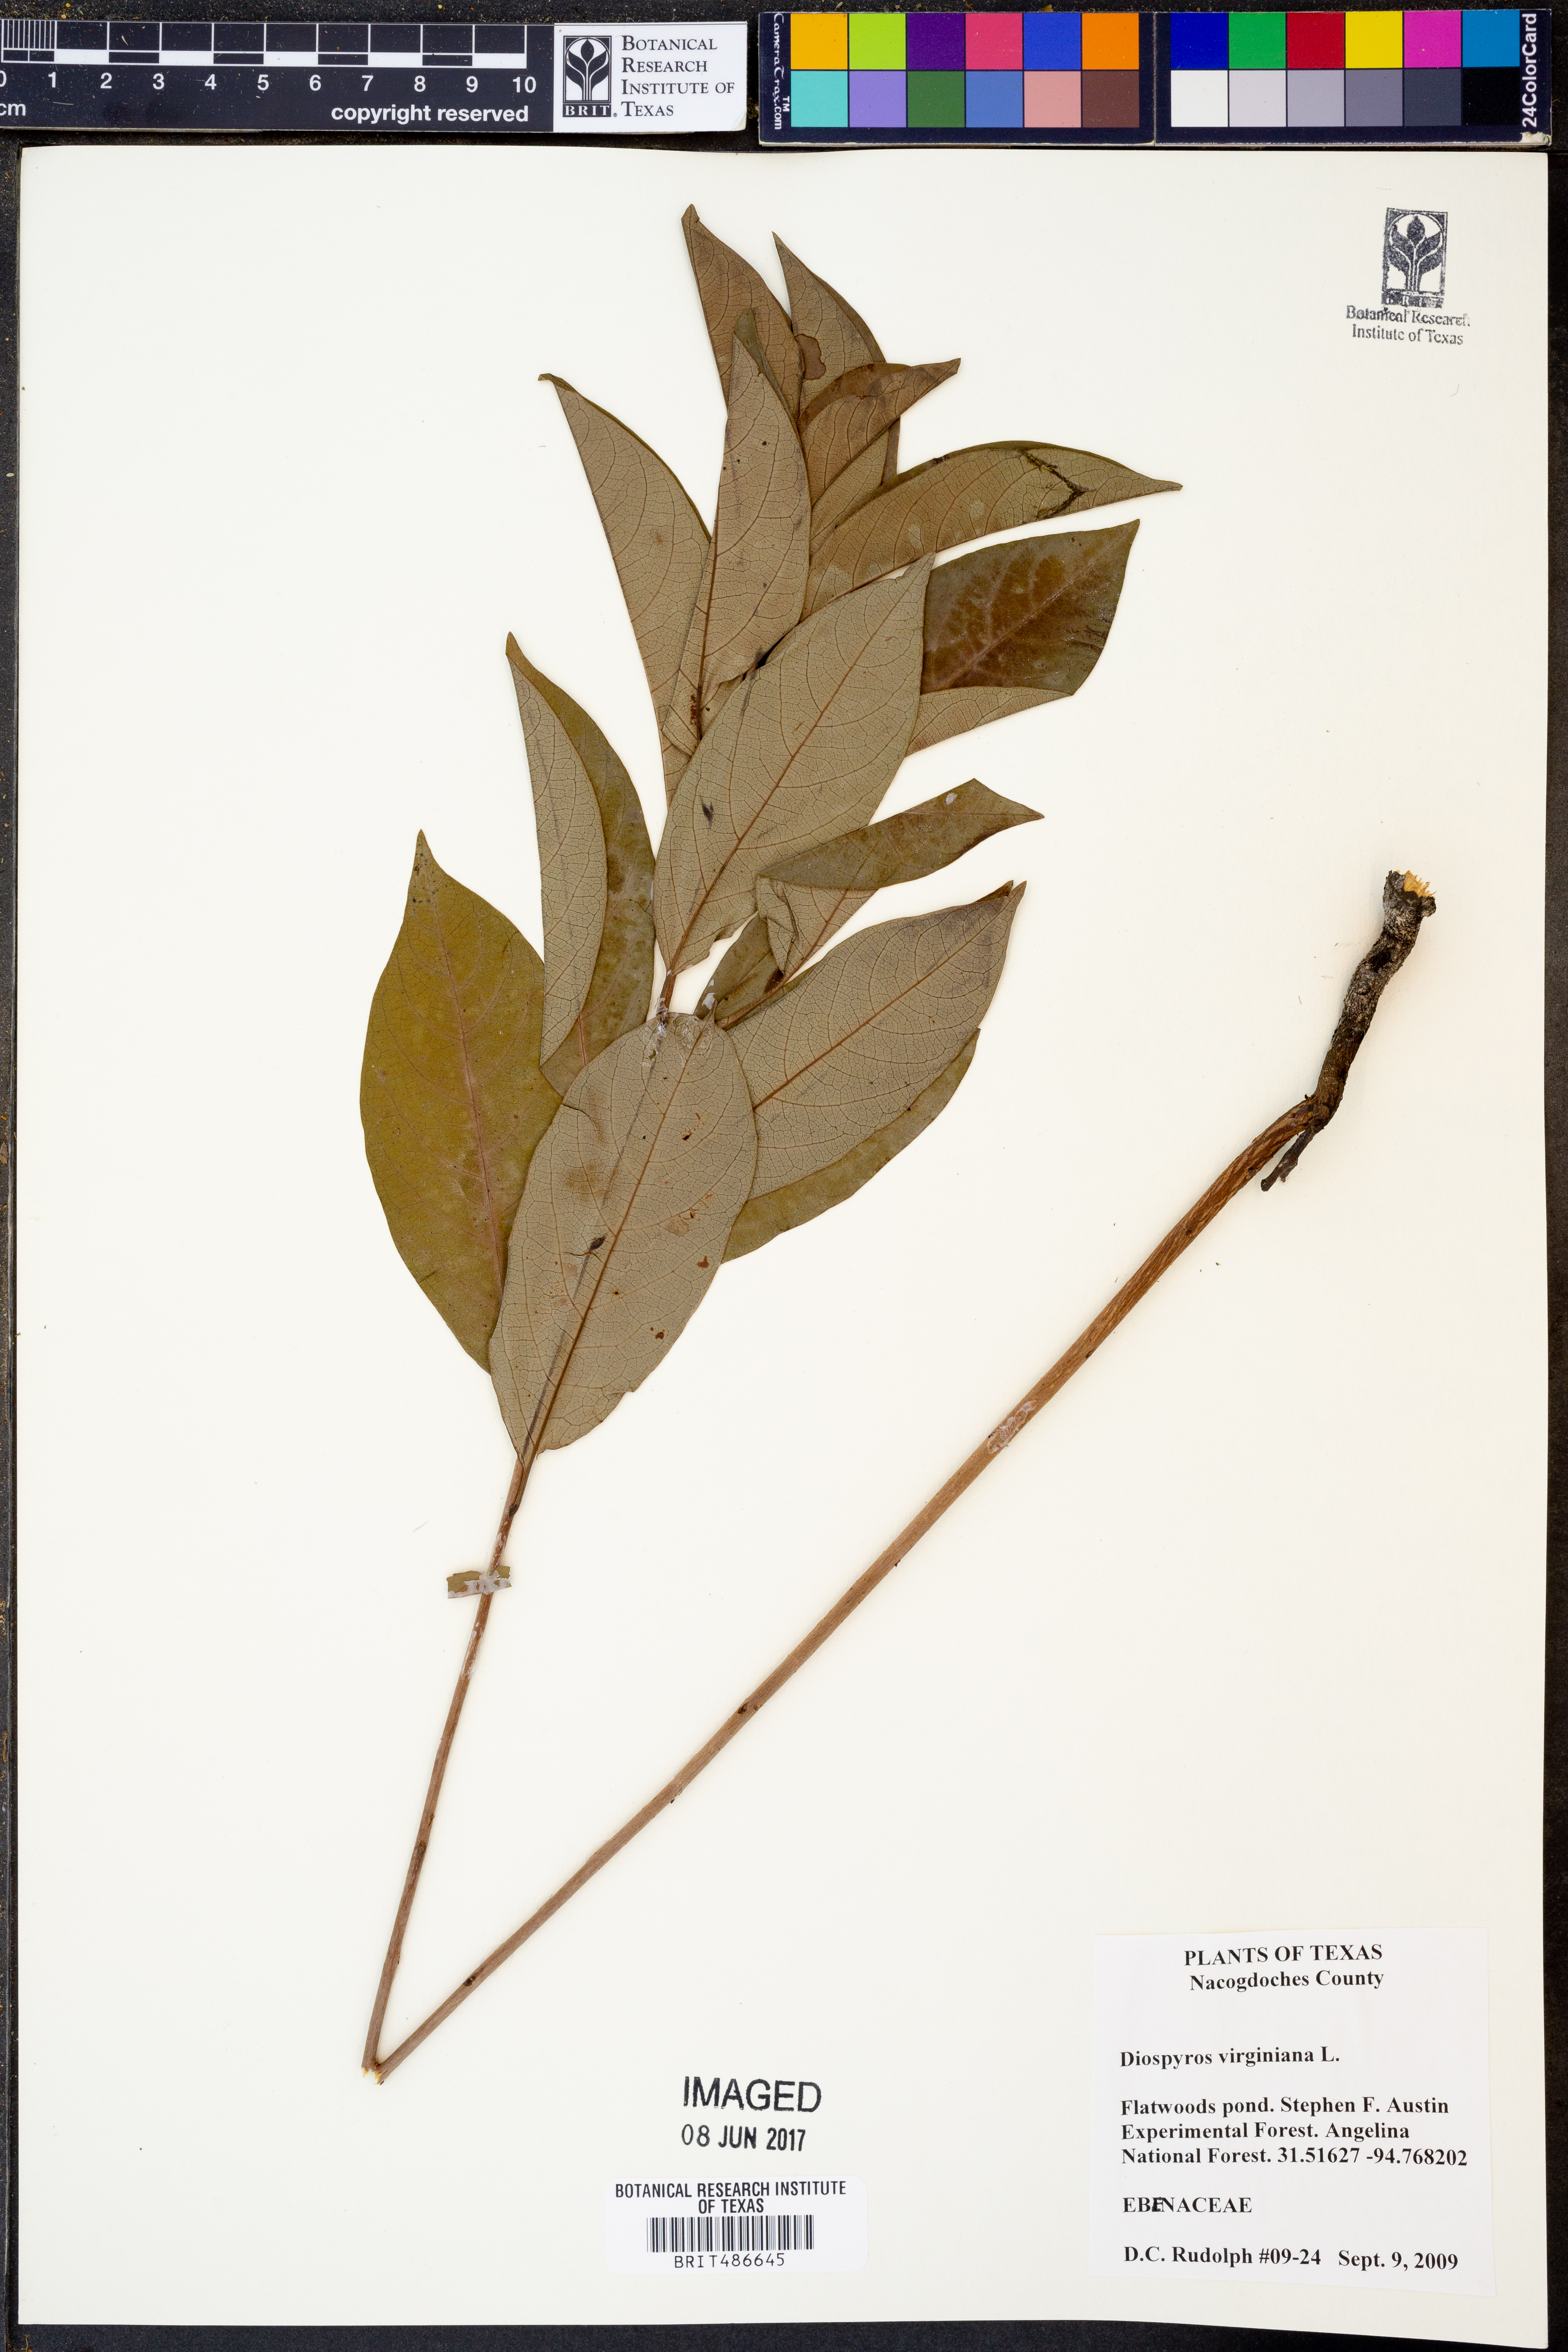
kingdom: Plantae
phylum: Tracheophyta
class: Magnoliopsida
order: Ericales
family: Ebenaceae
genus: Diospyros
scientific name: Diospyros virginiana
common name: Persimmon
